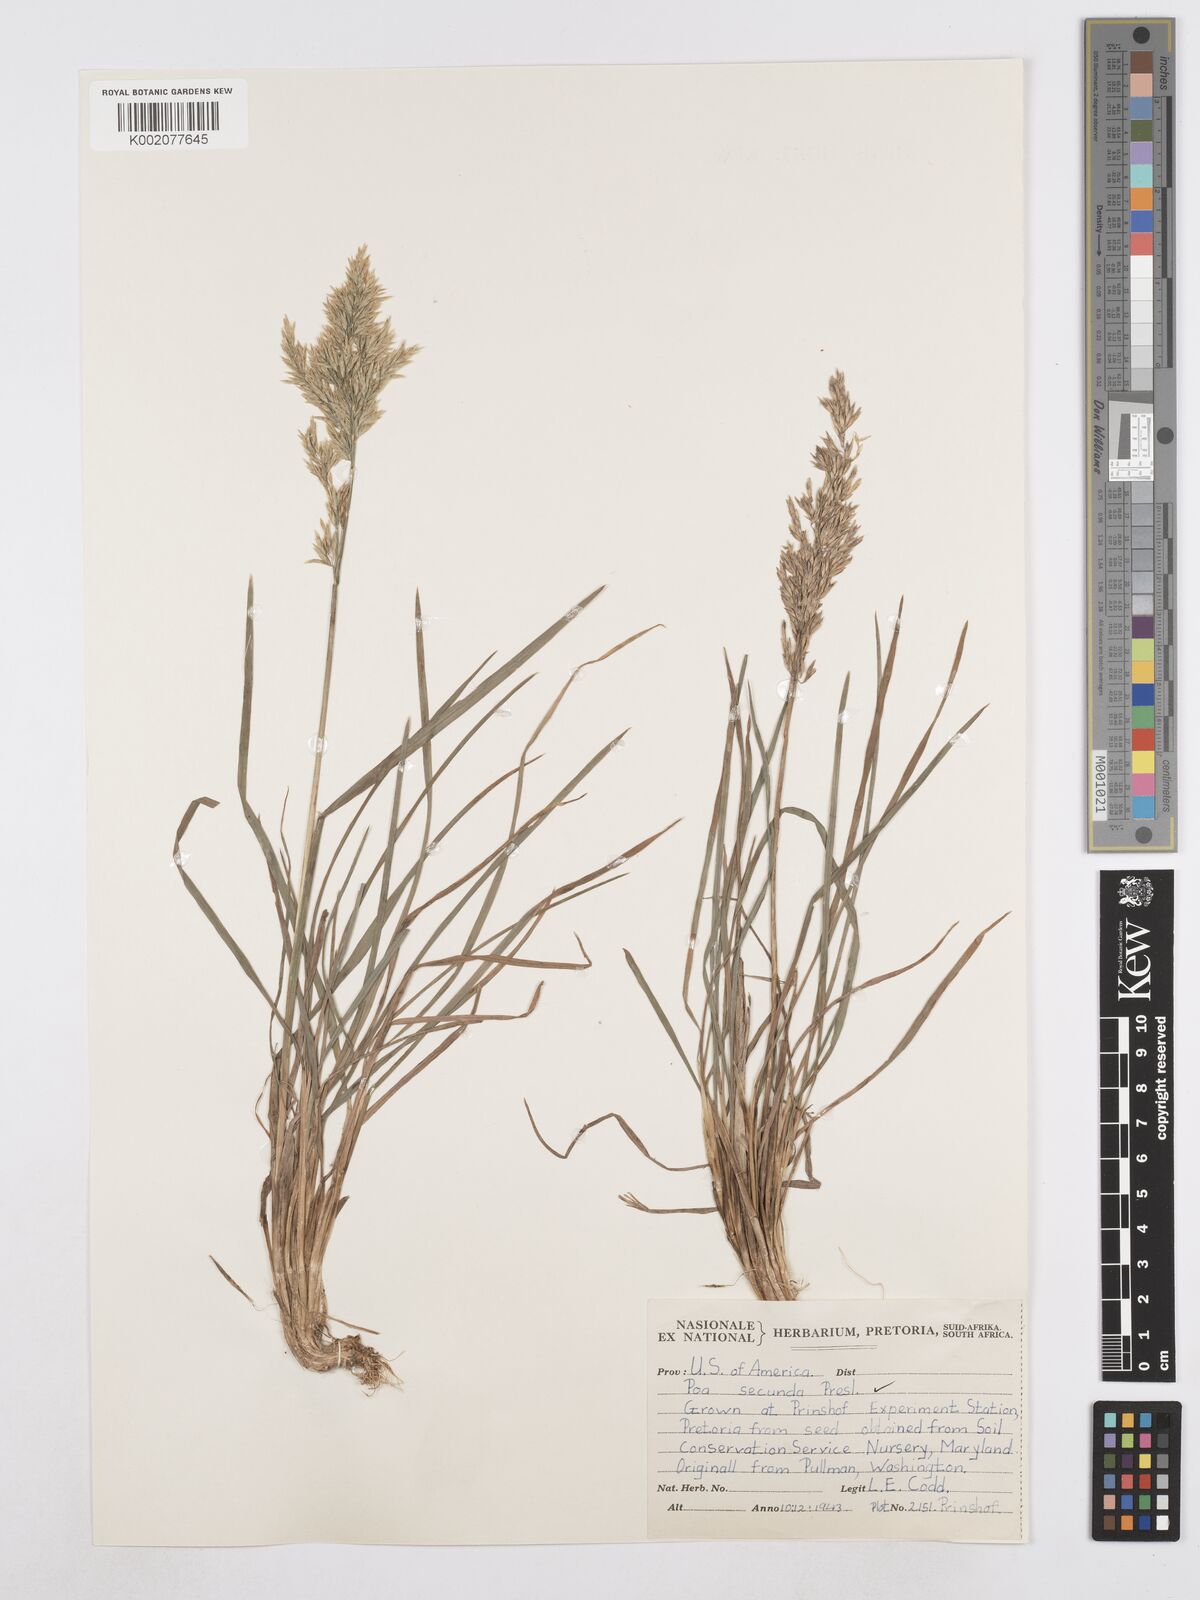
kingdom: Plantae
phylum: Tracheophyta
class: Liliopsida
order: Poales
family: Poaceae
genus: Poa
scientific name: Poa secunda
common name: Sandberg bluegrass
